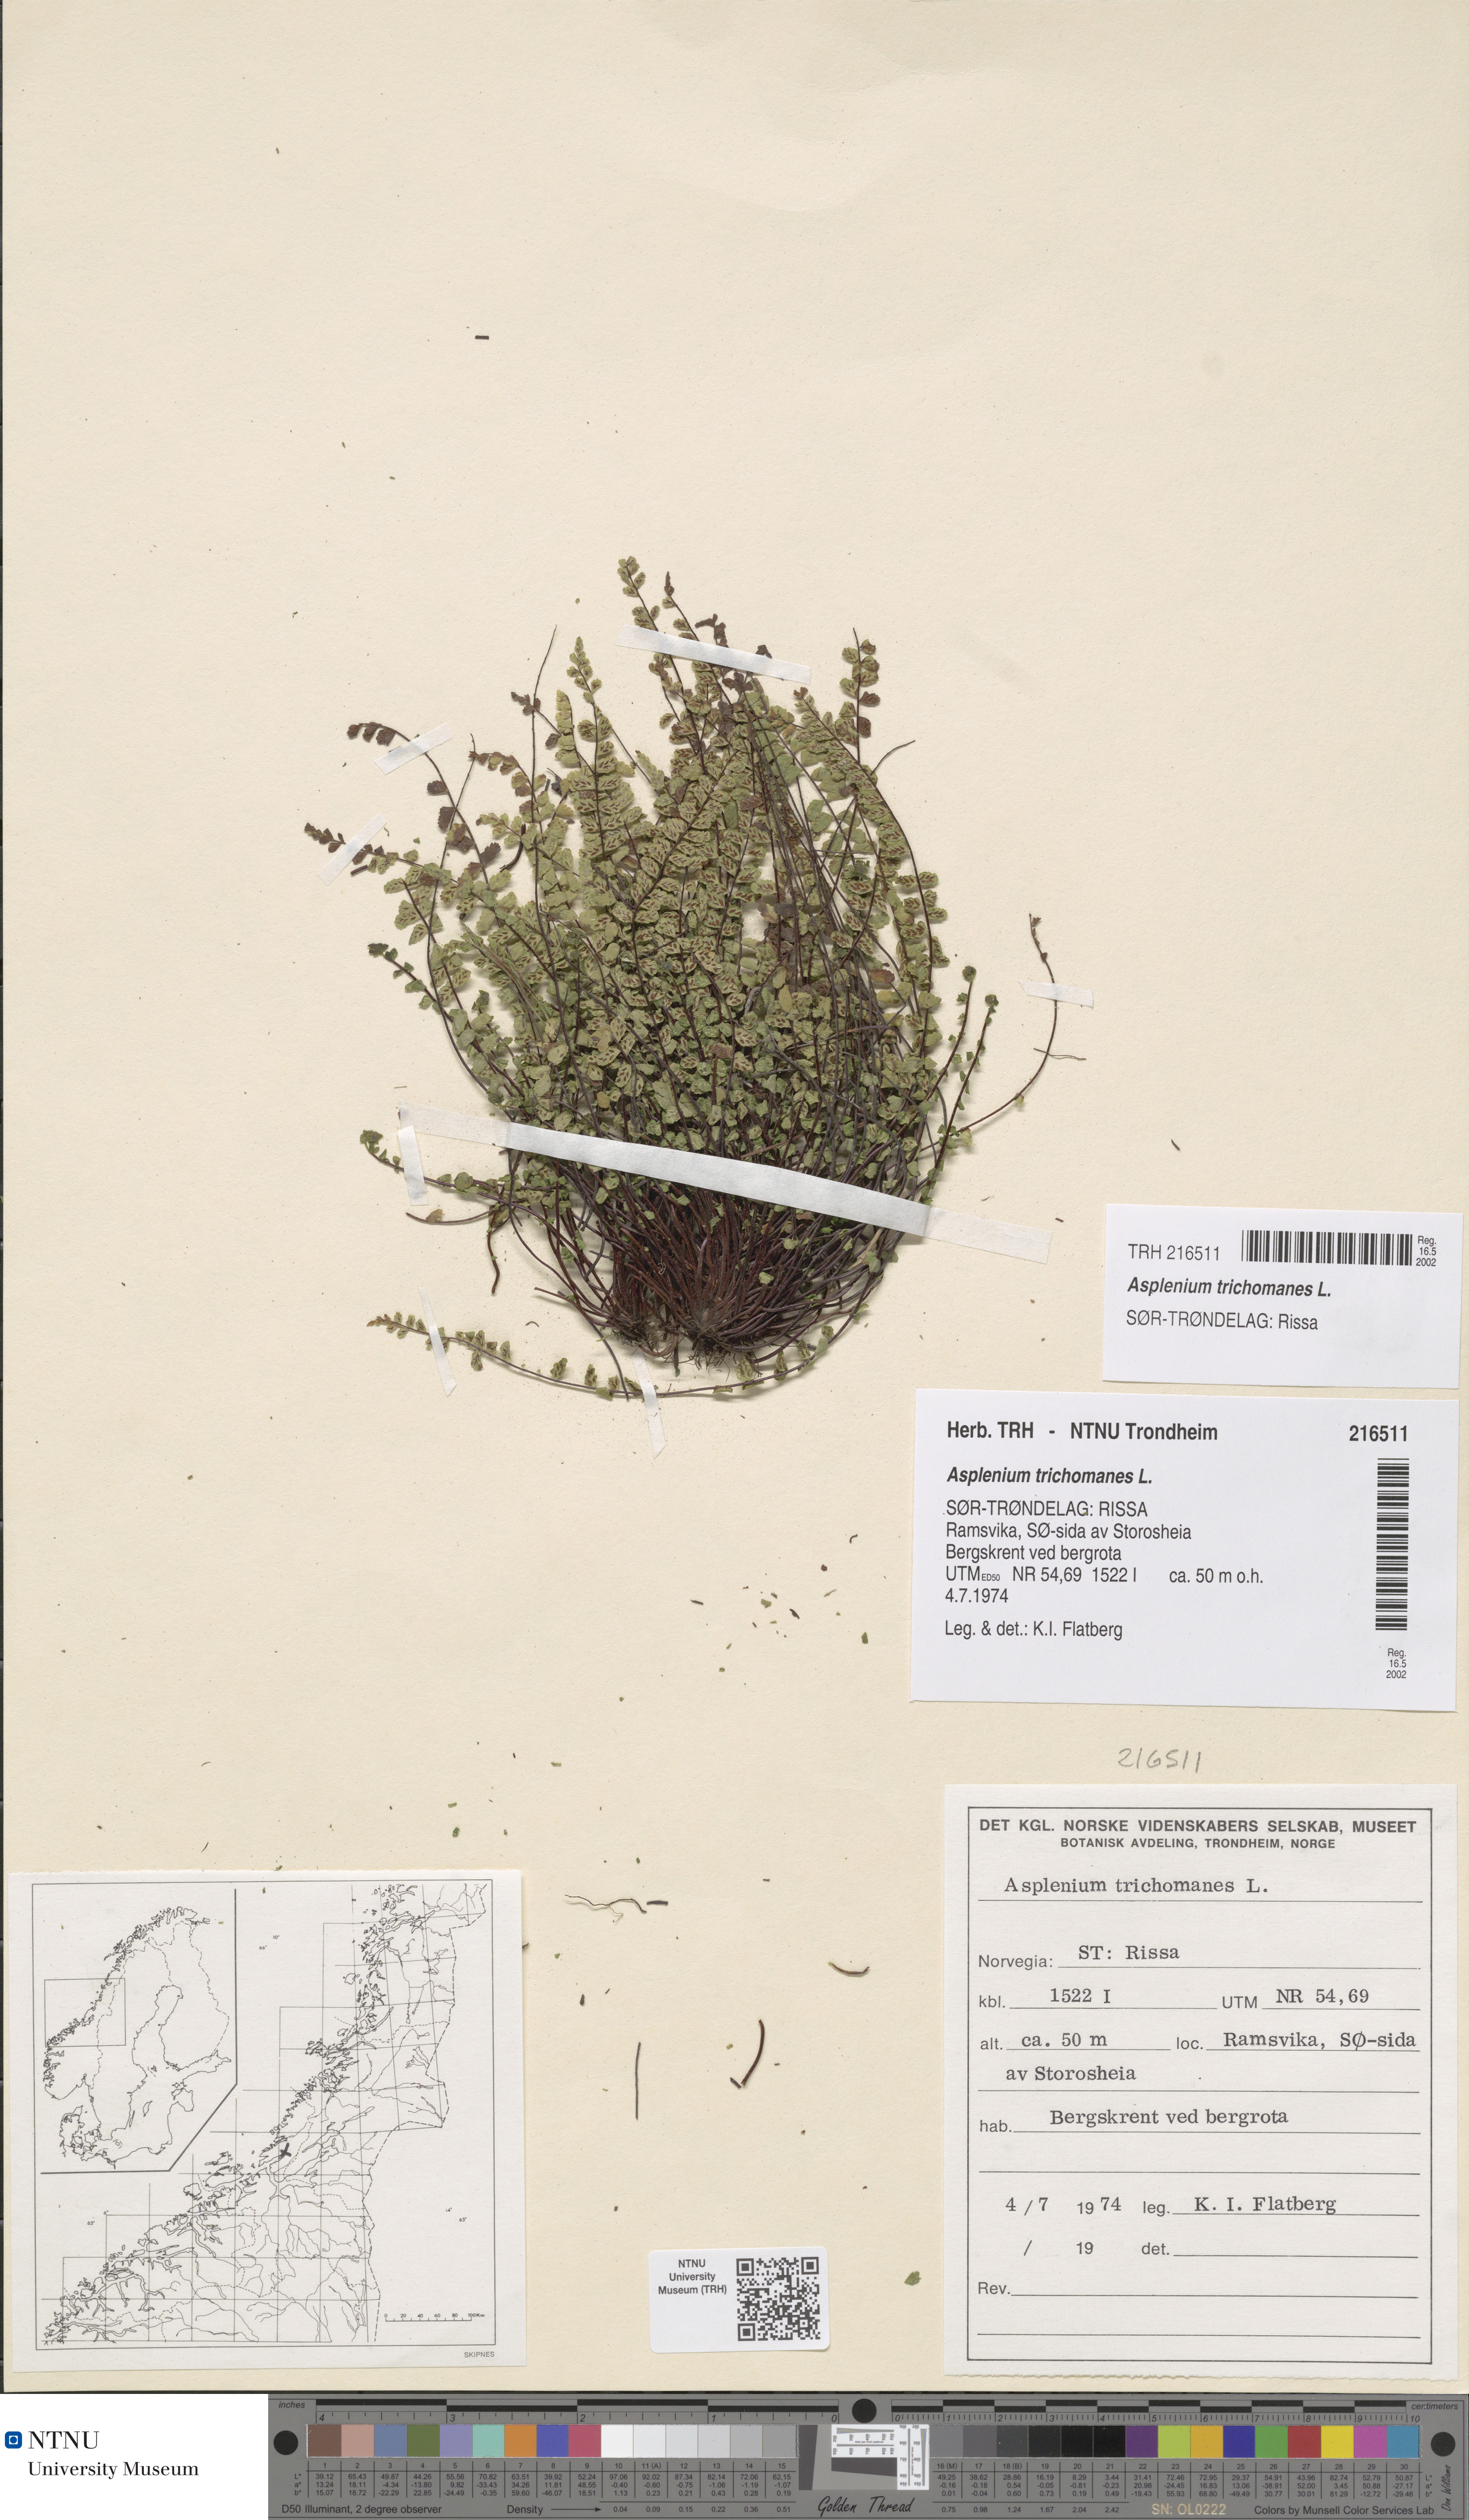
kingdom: Plantae
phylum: Tracheophyta
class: Polypodiopsida
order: Polypodiales
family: Aspleniaceae
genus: Asplenium
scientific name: Asplenium trichomanes
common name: Maidenhair spleenwort
